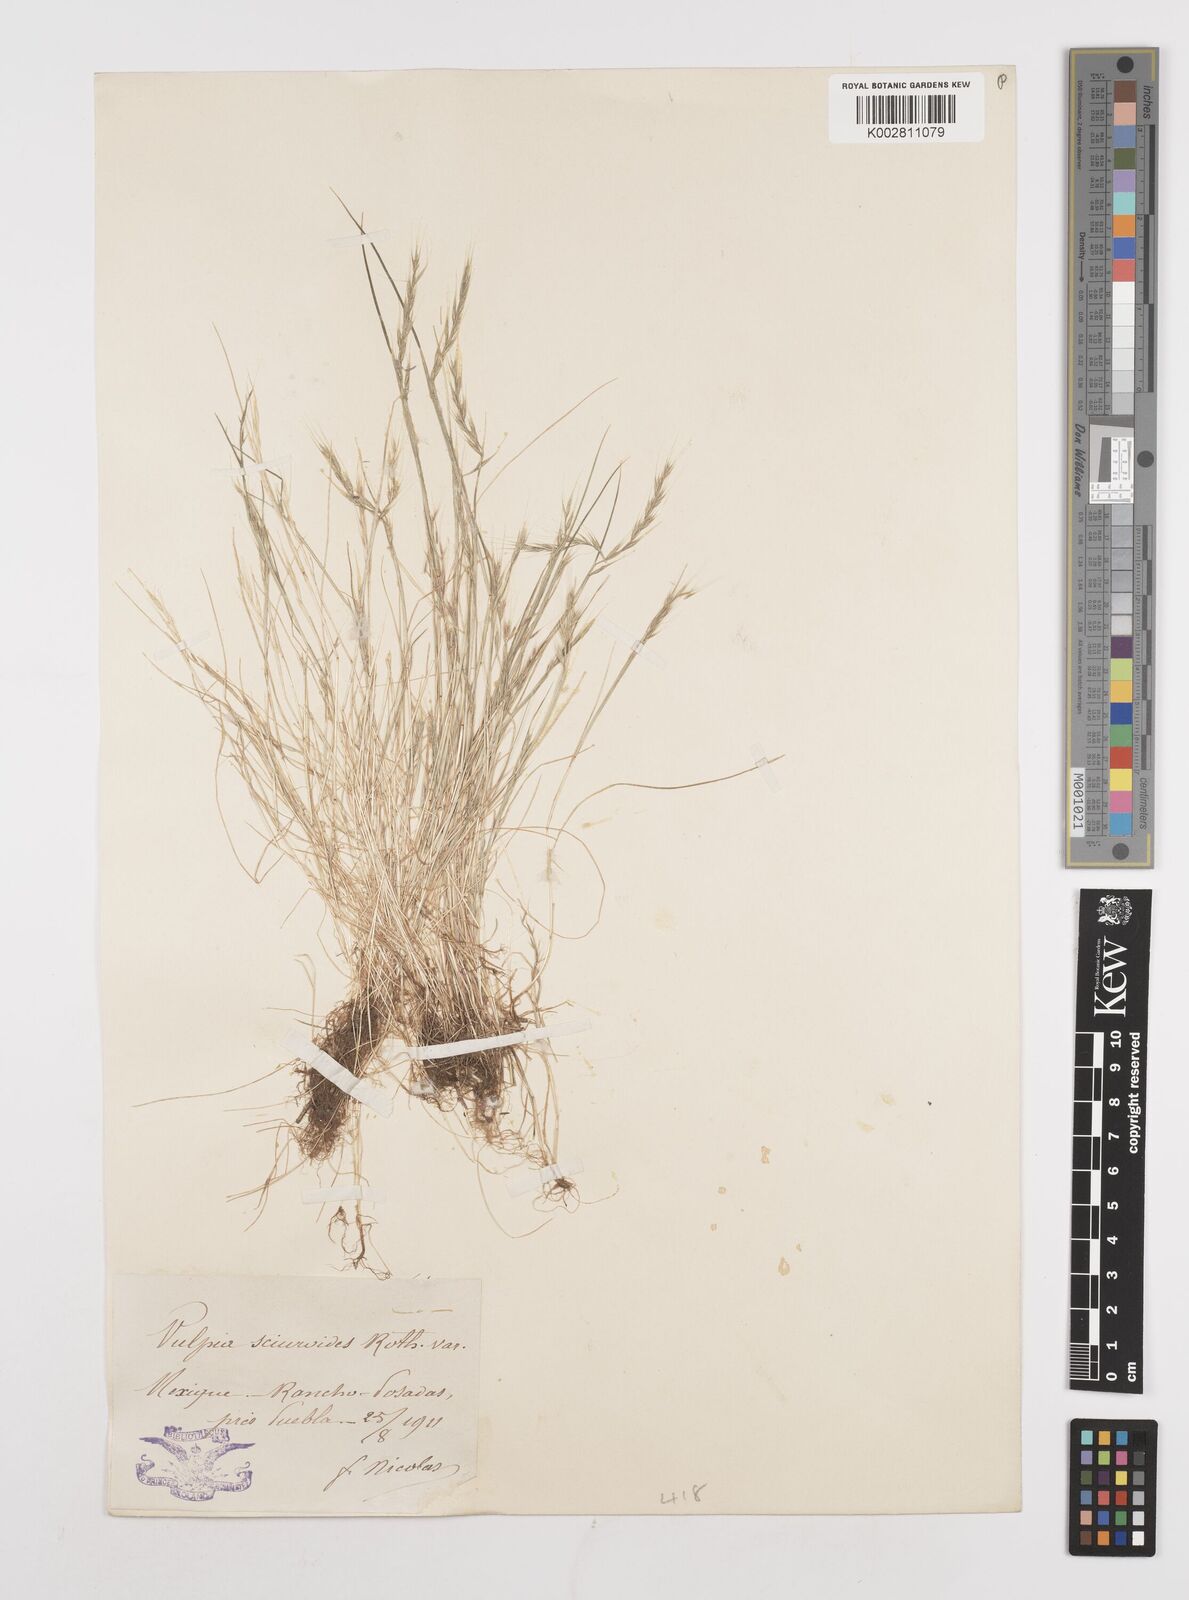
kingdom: Plantae
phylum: Tracheophyta
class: Liliopsida
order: Poales
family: Poaceae
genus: Festuca
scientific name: Festuca myuros
